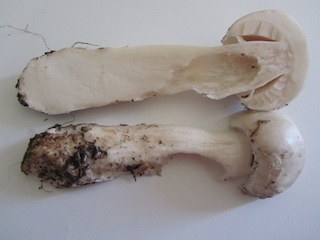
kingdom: Fungi
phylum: Basidiomycota
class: Agaricomycetes
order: Agaricales
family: Amanitaceae
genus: Limacellopsis
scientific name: Limacellopsis guttata
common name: tåre-snekkehat
